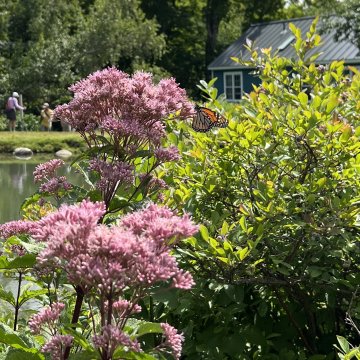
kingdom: Animalia
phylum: Arthropoda
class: Insecta
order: Lepidoptera
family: Nymphalidae
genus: Danaus
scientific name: Danaus plexippus
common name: Monarch
